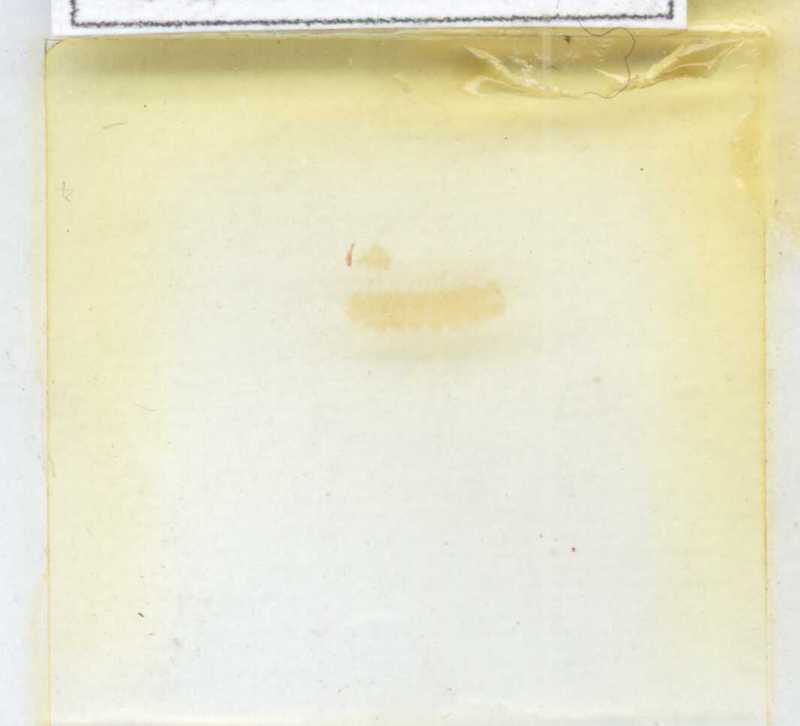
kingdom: Animalia
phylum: Arthropoda
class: Diplopoda
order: Polyxenida
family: Lophoproctidae
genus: Lophoproctus
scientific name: Lophoproctus lucidus
